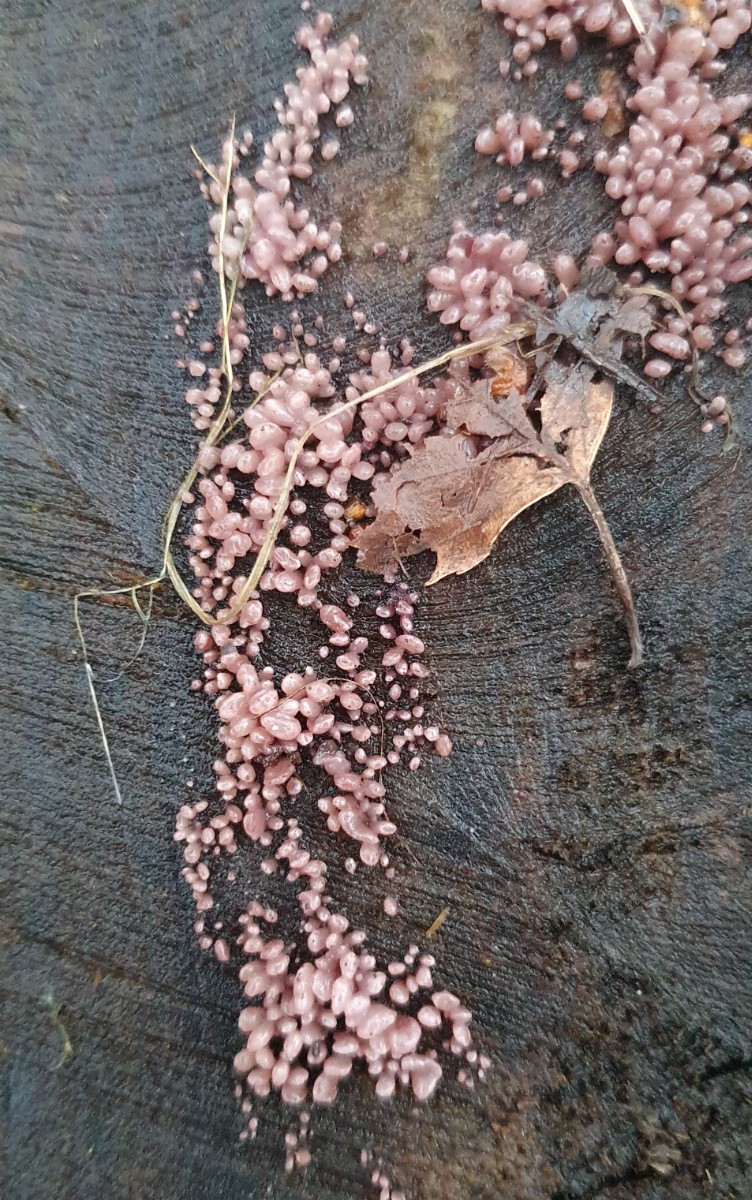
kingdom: Fungi
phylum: Ascomycota
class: Leotiomycetes
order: Helotiales
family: Gelatinodiscaceae
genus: Ascocoryne
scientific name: Ascocoryne sarcoides
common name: rødlilla sejskive
